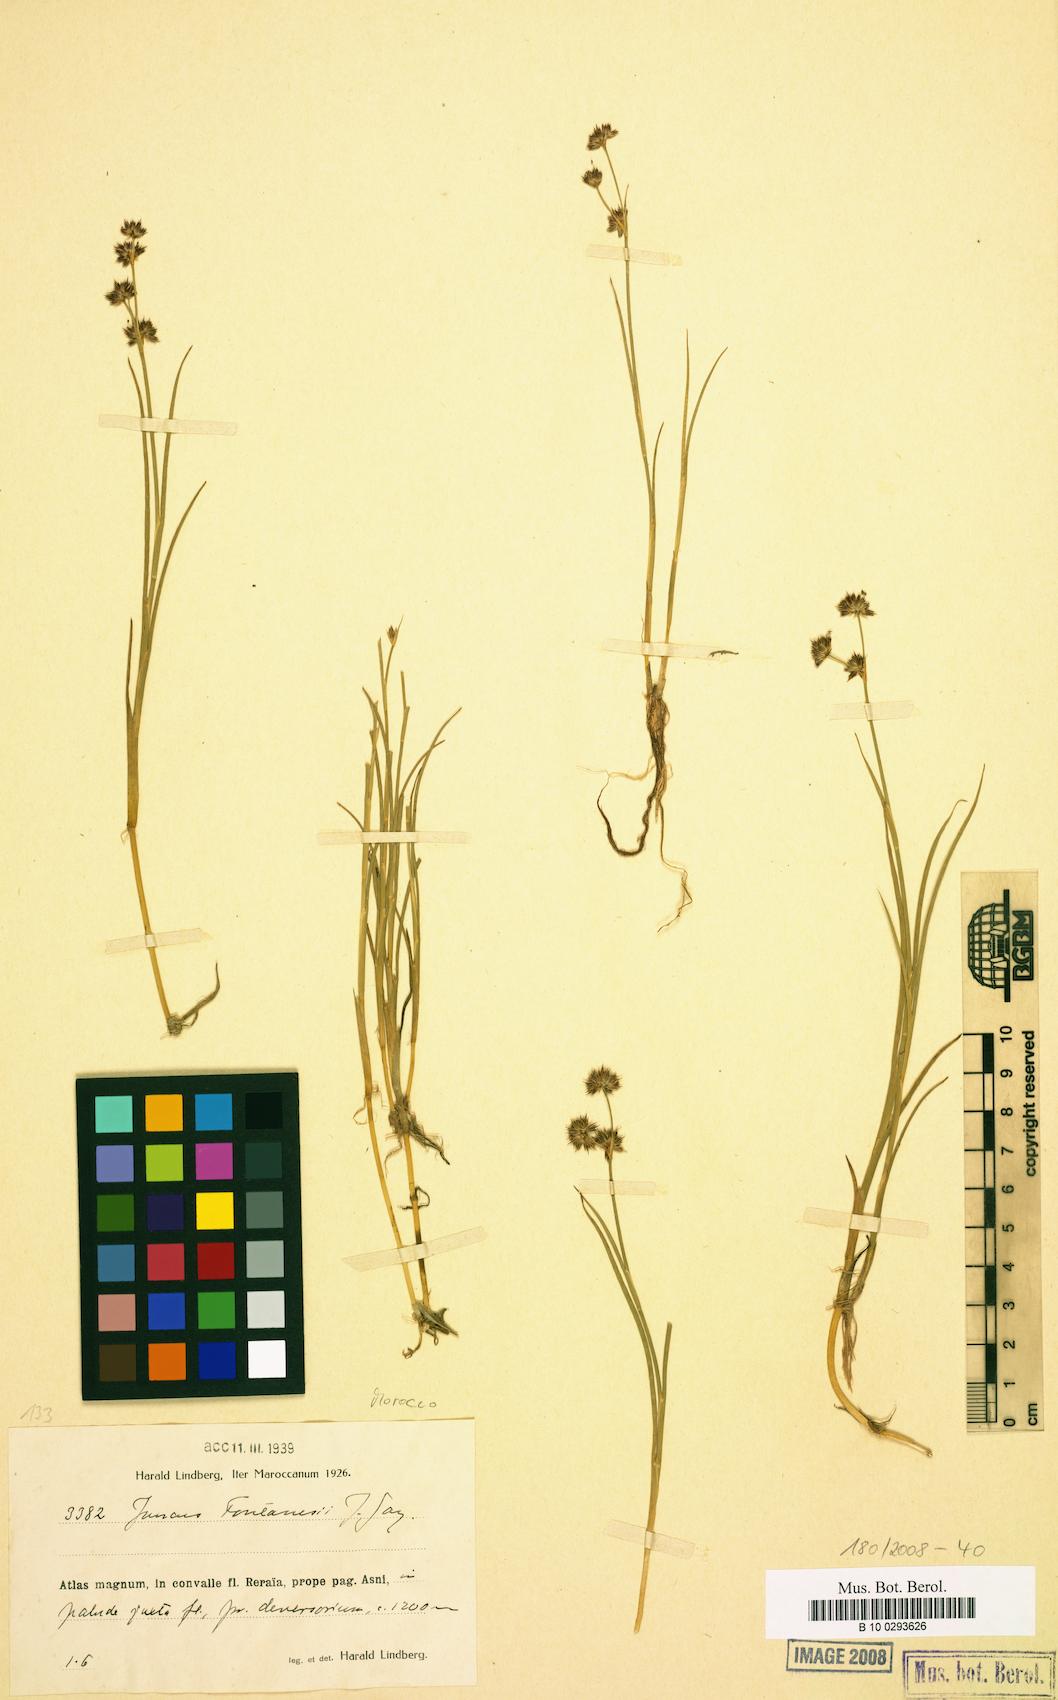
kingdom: Plantae
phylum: Tracheophyta
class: Liliopsida
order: Poales
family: Juncaceae
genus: Juncus
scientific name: Juncus fontanesii
